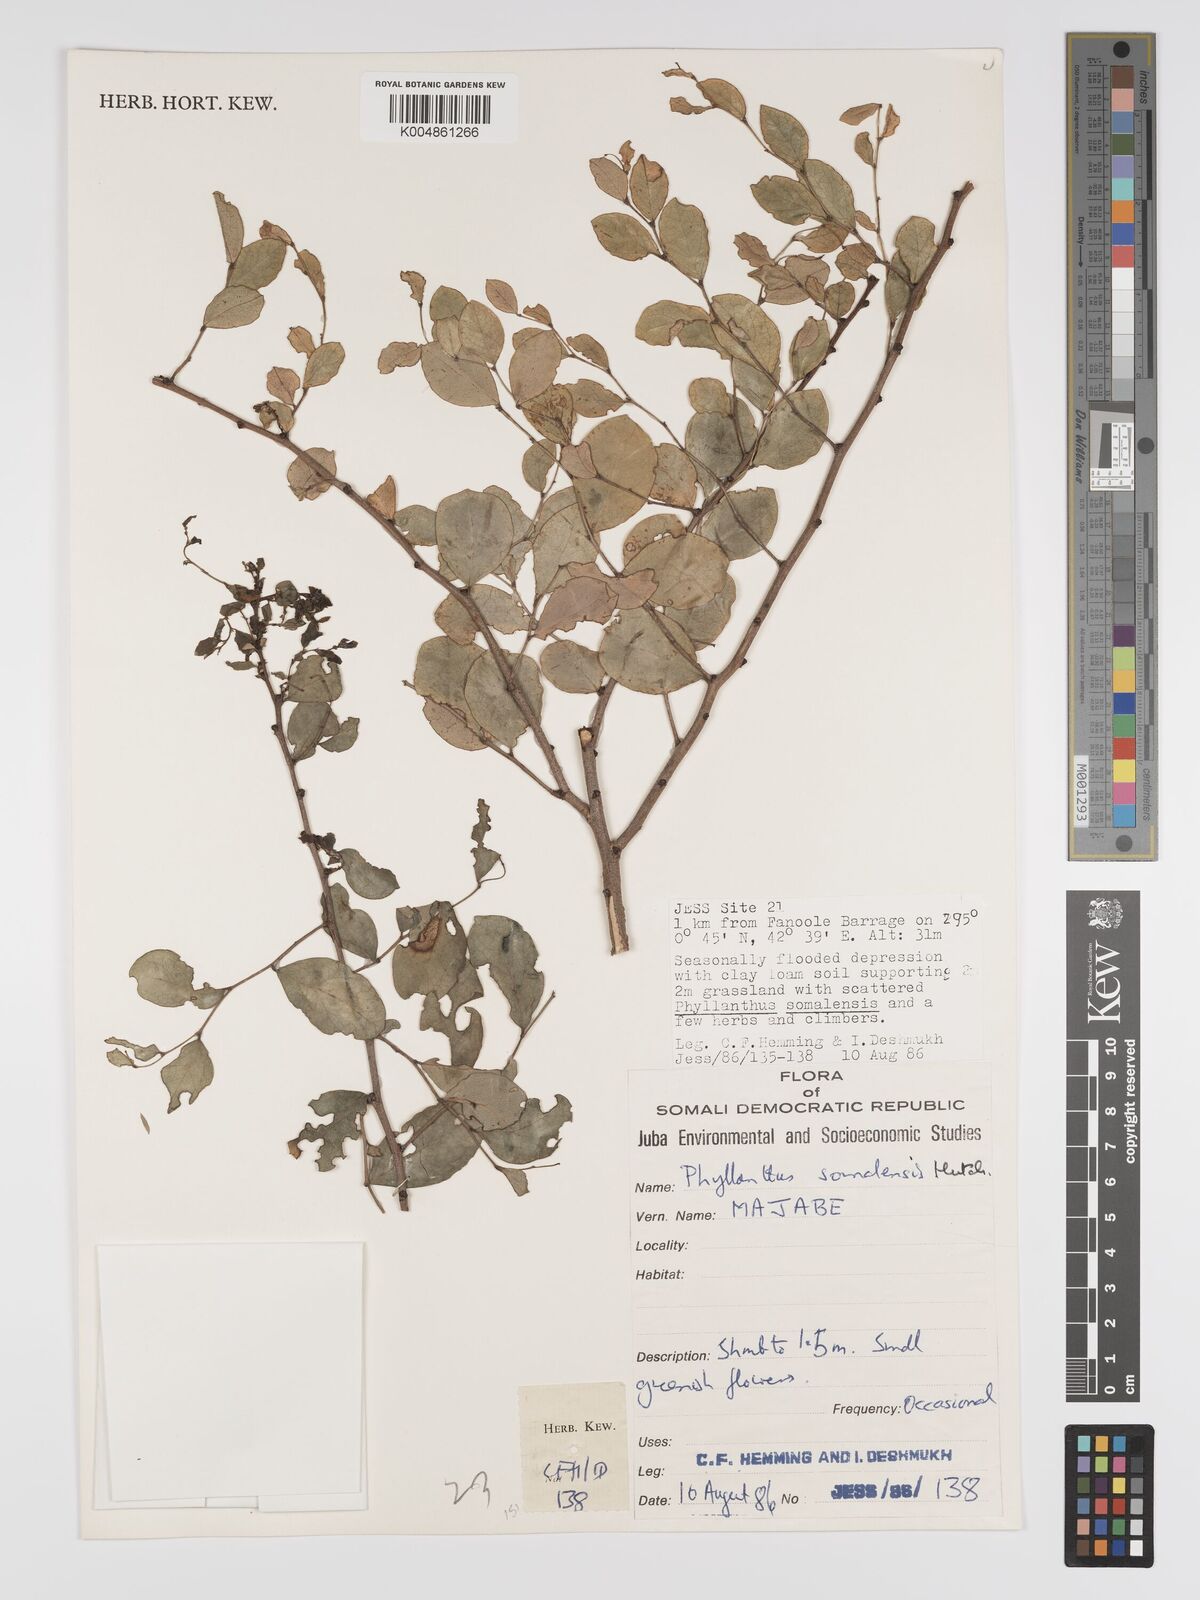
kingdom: Plantae
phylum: Tracheophyta
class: Magnoliopsida
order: Malpighiales
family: Phyllanthaceae
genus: Phyllanthus
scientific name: Phyllanthus somalensis
